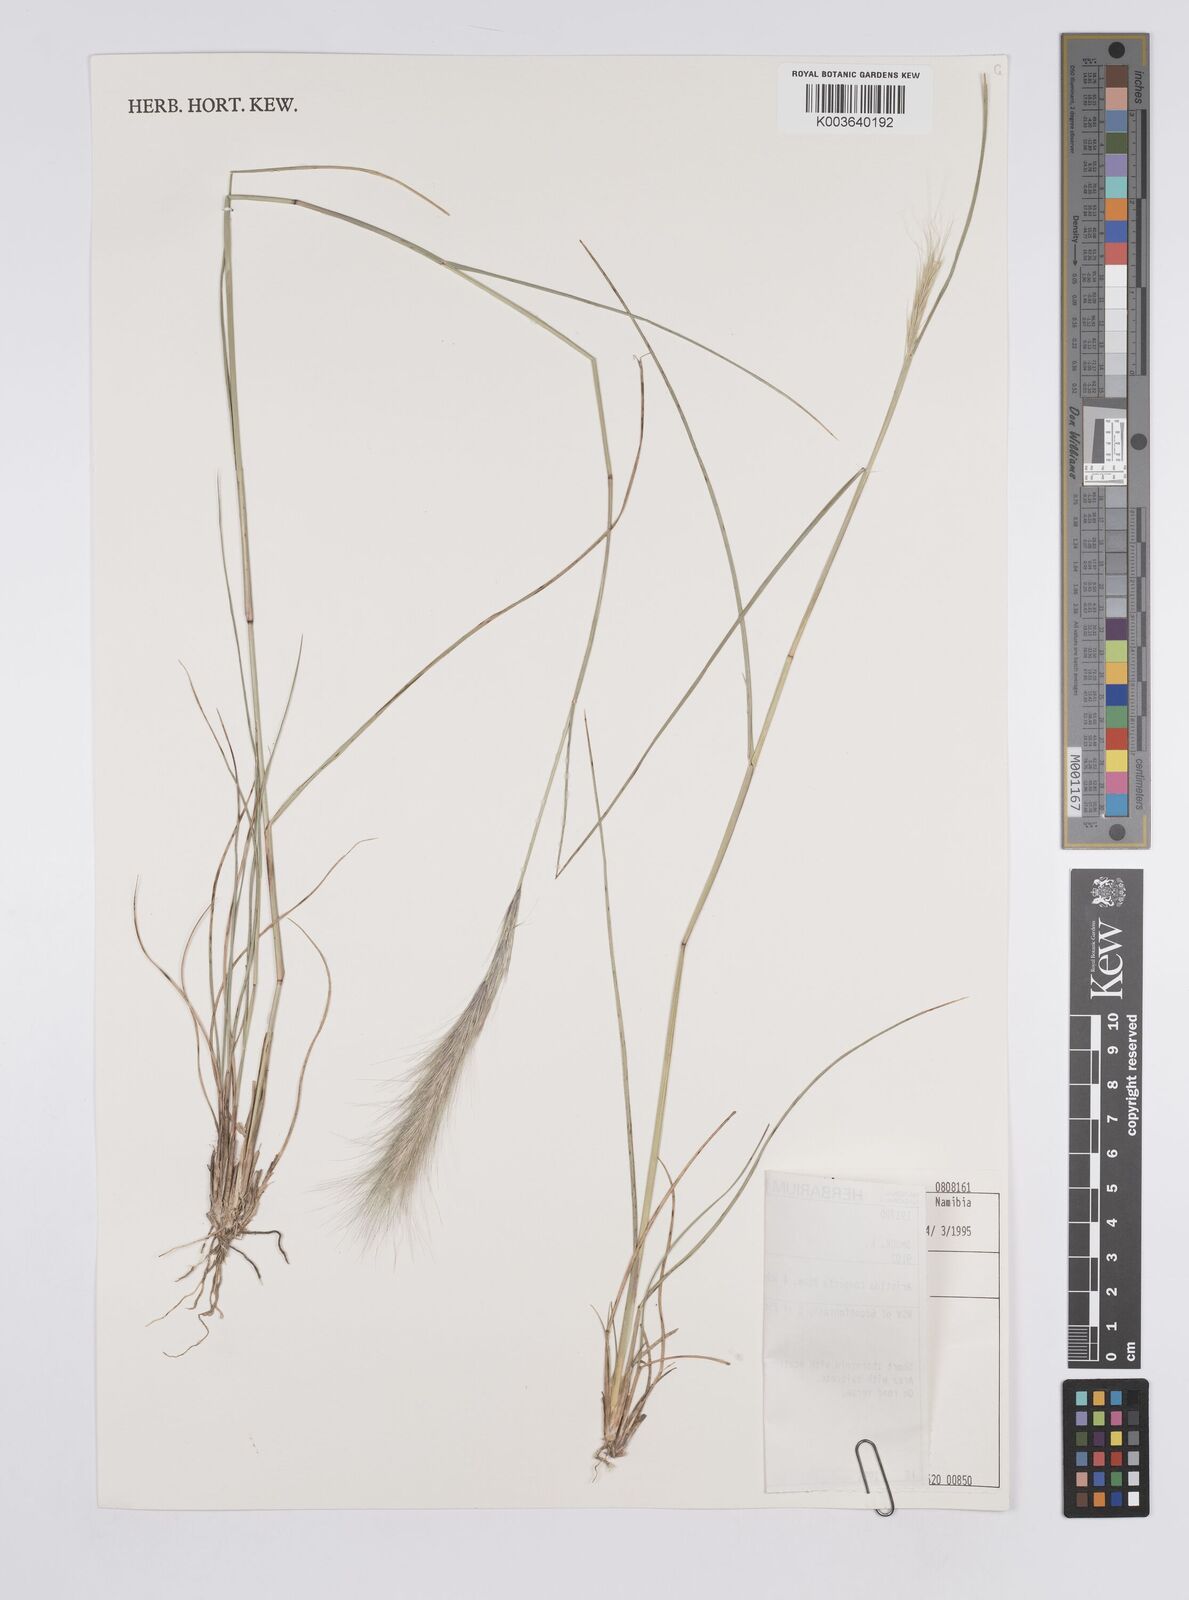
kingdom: Plantae
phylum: Tracheophyta
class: Liliopsida
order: Poales
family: Poaceae
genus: Aristida
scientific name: Aristida congesta
